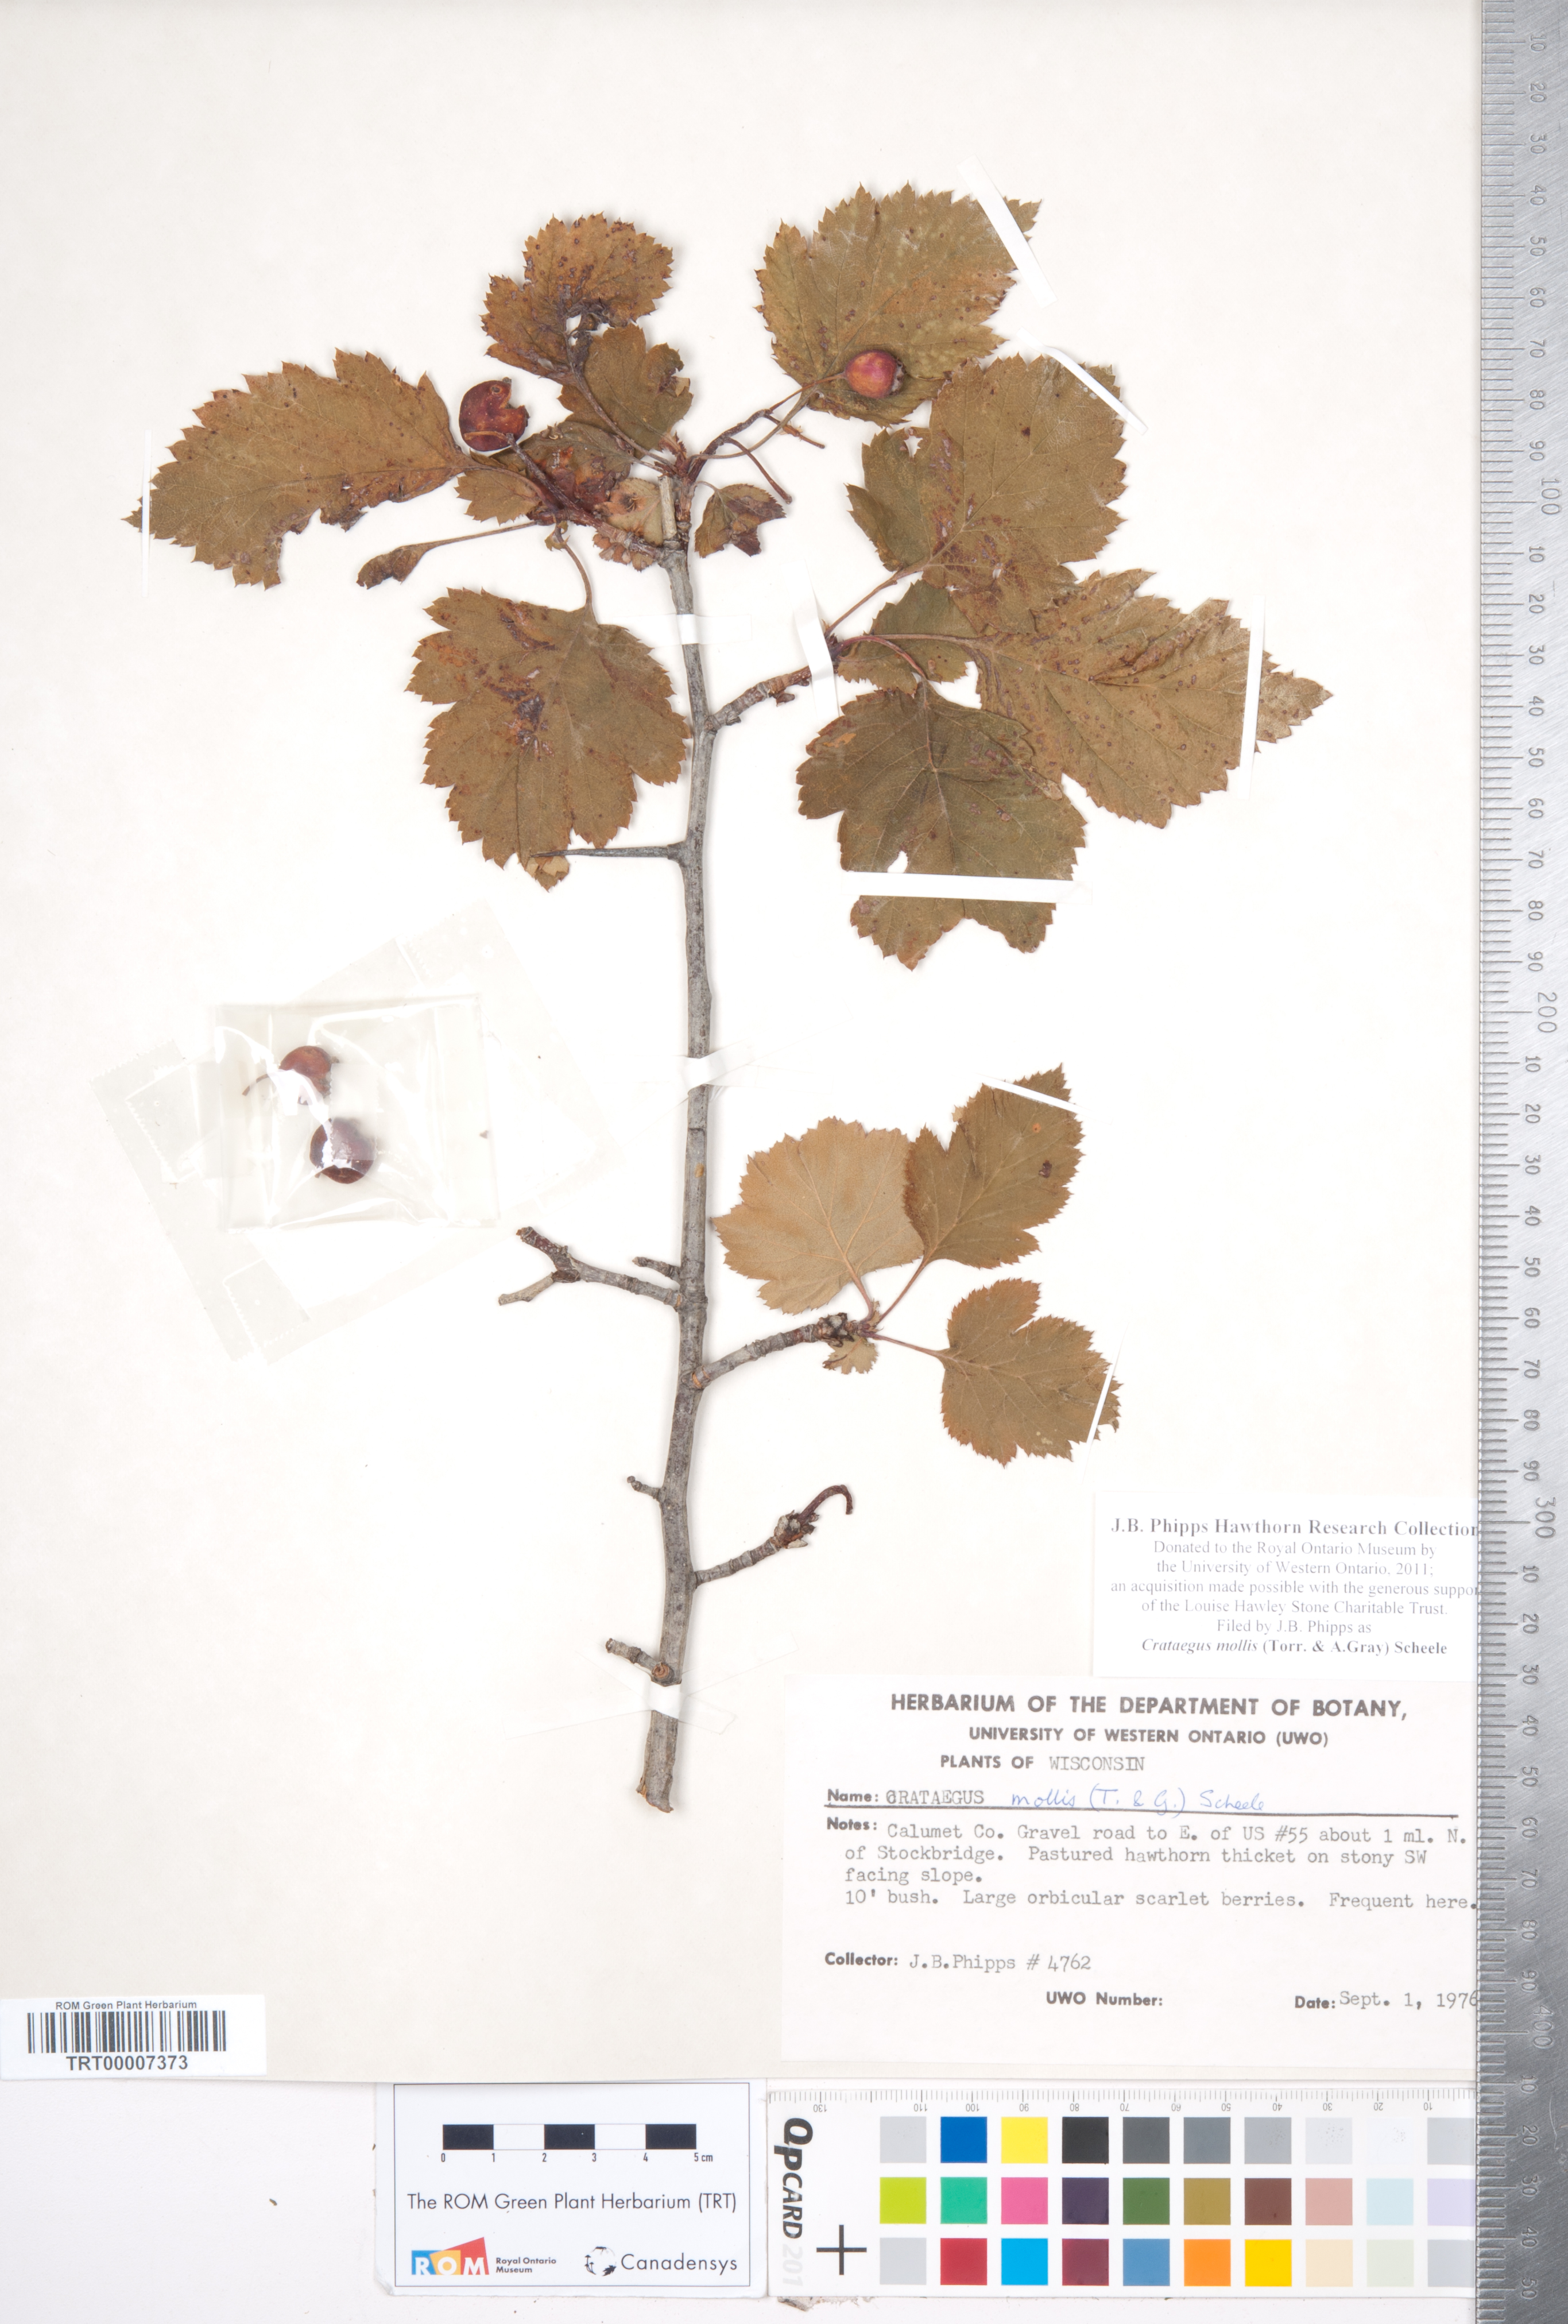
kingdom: Plantae
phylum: Tracheophyta
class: Magnoliopsida
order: Rosales
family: Rosaceae
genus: Crataegus
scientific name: Crataegus mollis
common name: Downy hawthorn
